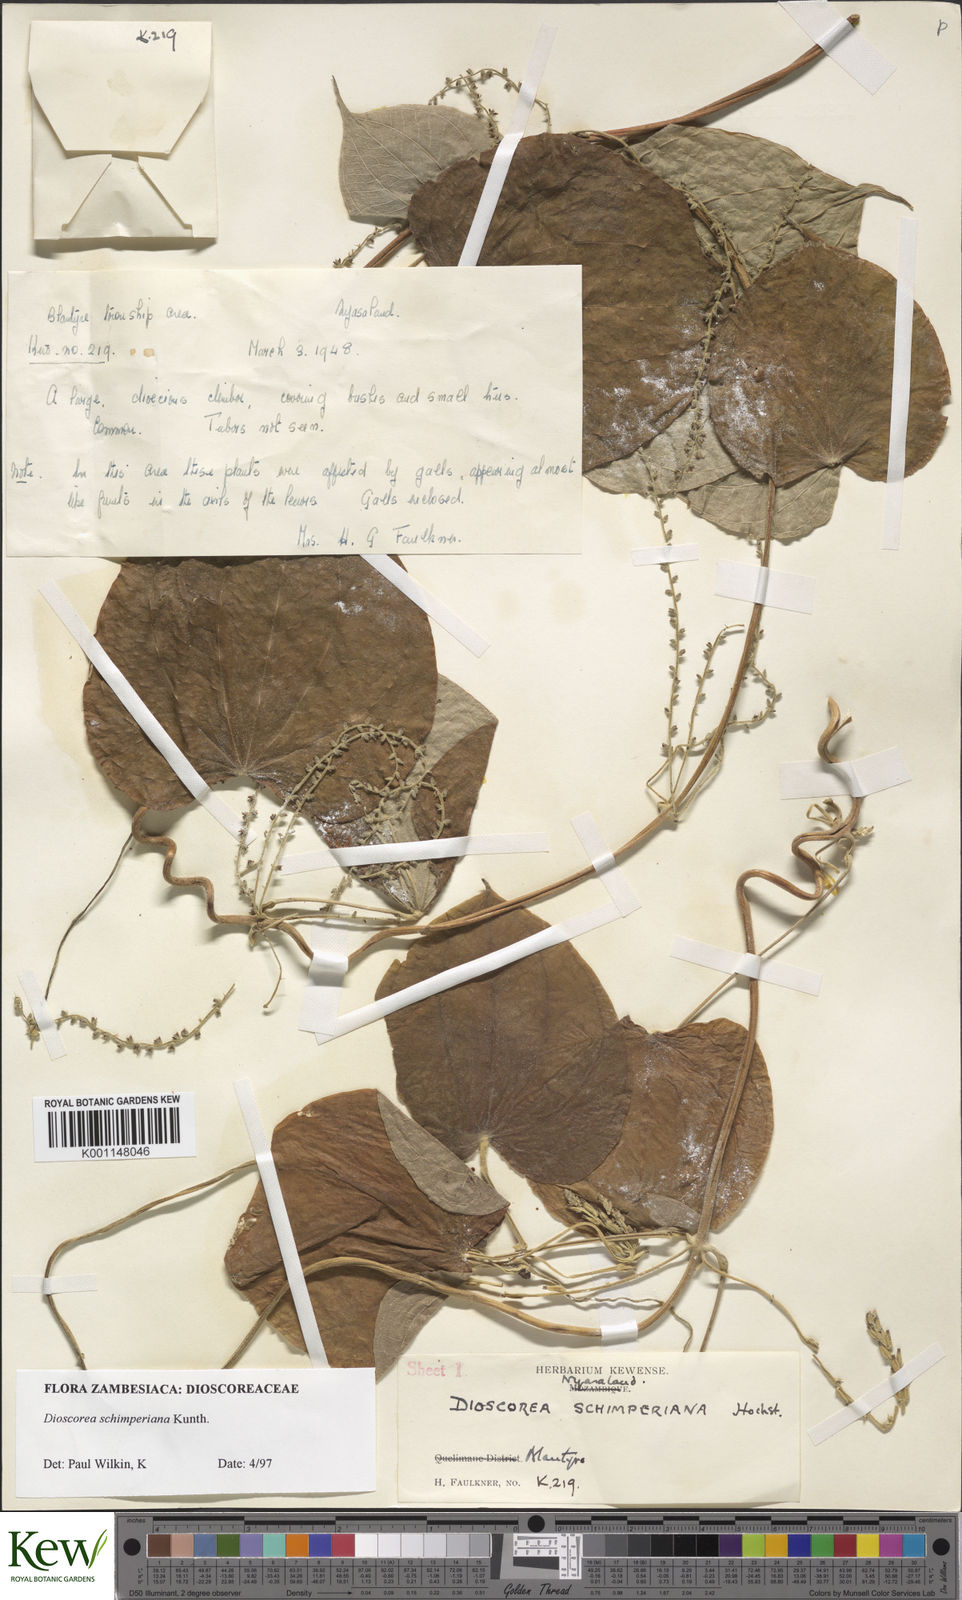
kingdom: Plantae
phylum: Tracheophyta
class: Liliopsida
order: Dioscoreales
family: Dioscoreaceae
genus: Dioscorea
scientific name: Dioscorea schimperiana
